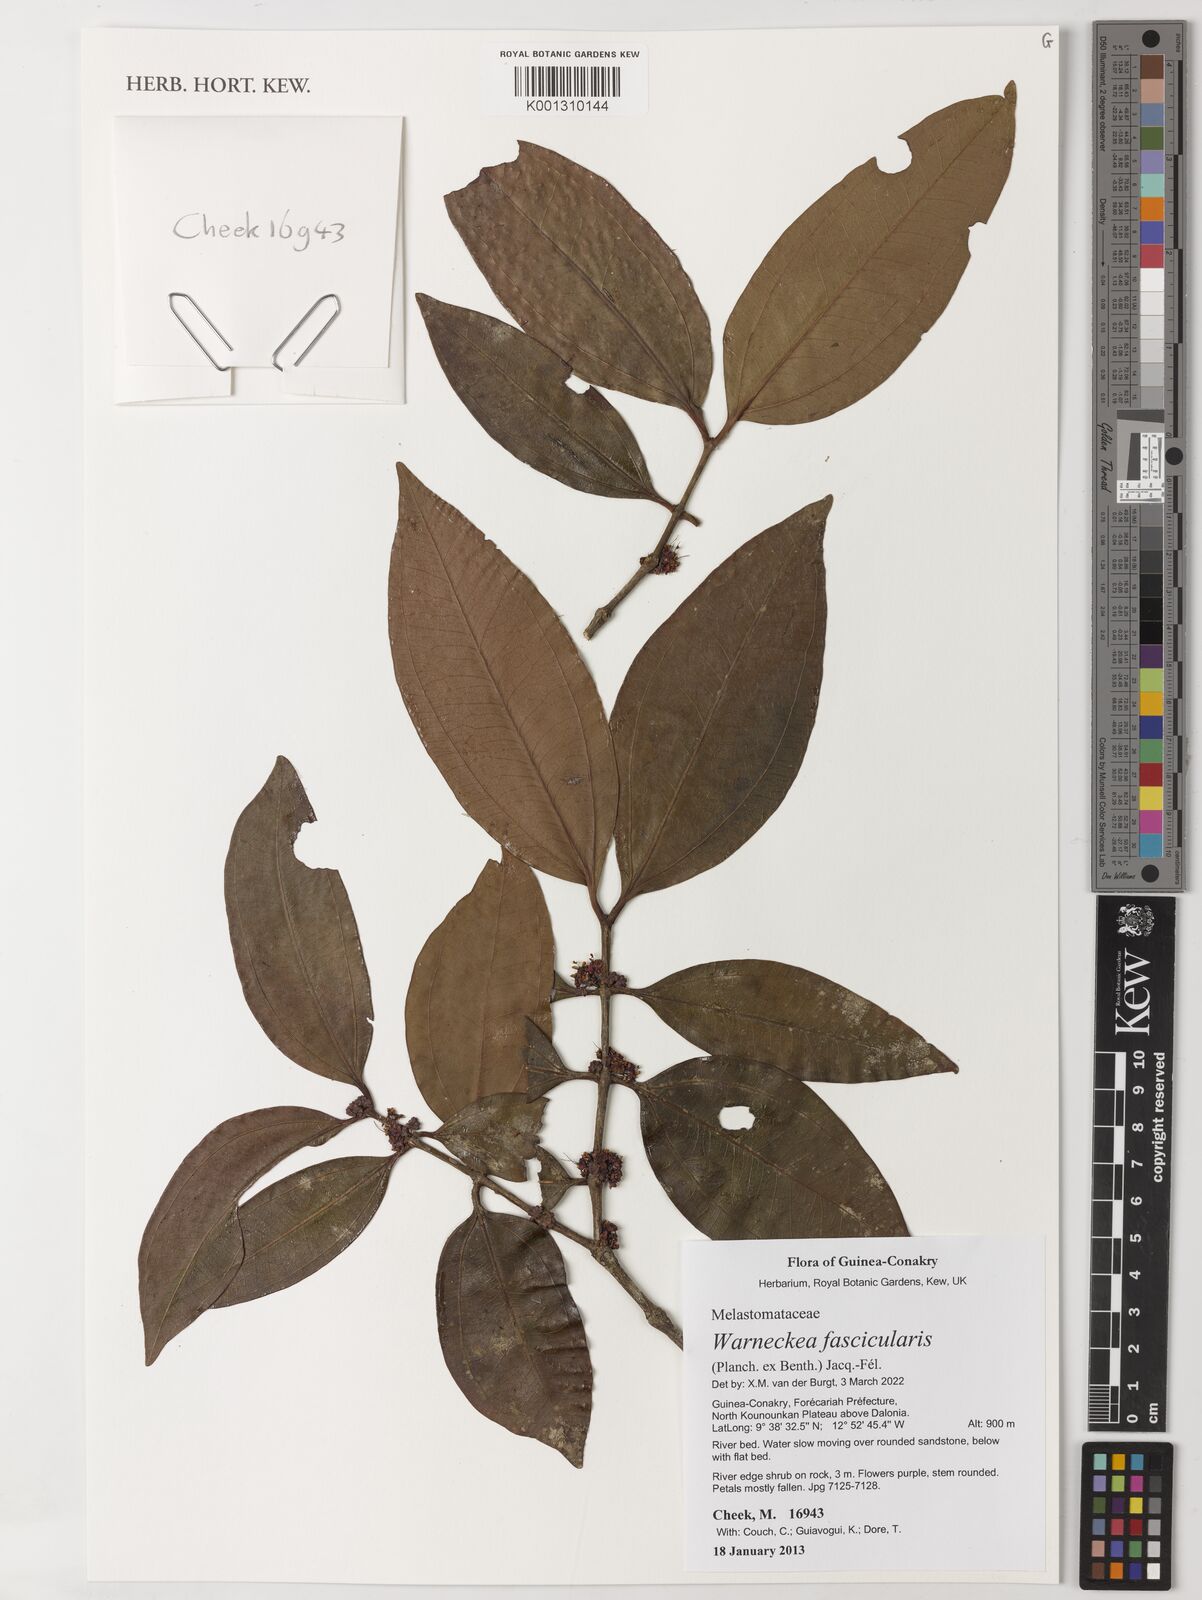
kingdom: Plantae
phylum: Tracheophyta
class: Magnoliopsida
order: Myrtales
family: Melastomataceae
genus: Warneckea
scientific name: Warneckea fascicularis
